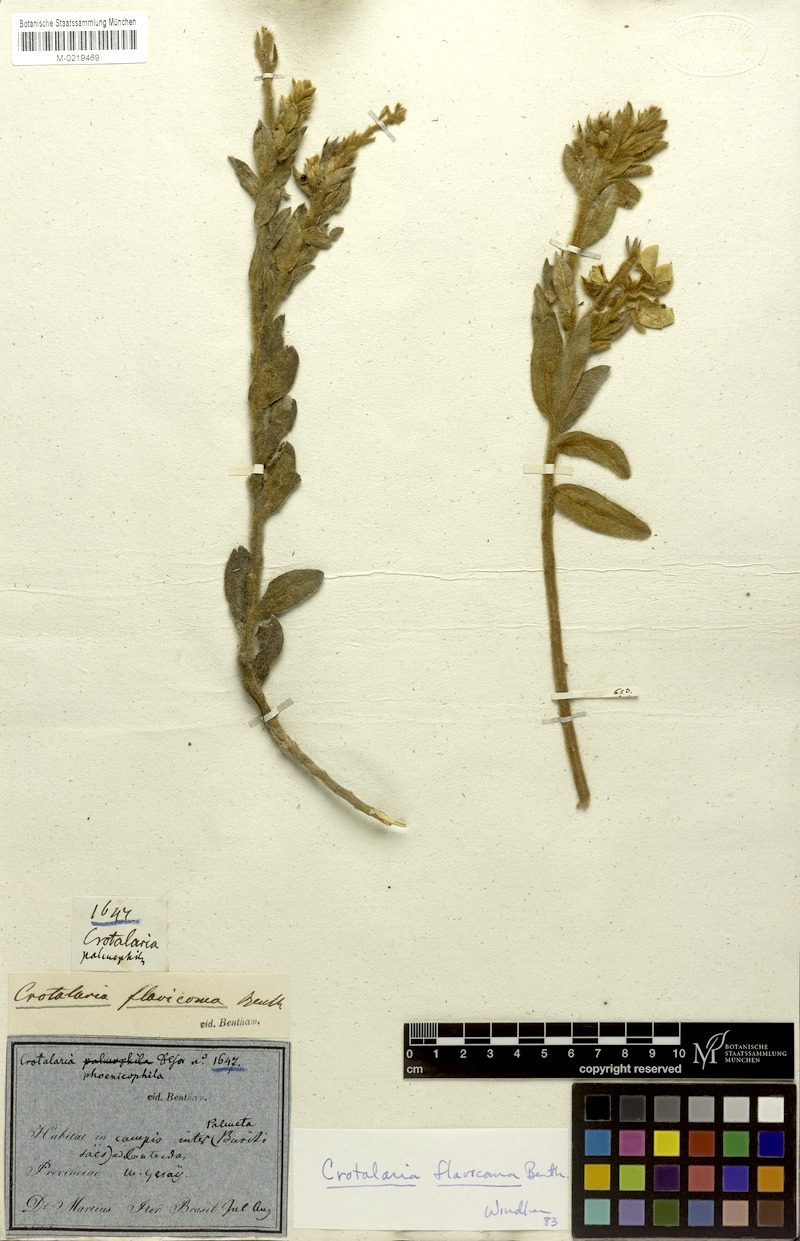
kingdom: Plantae
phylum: Tracheophyta
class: Magnoliopsida
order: Fabales
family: Fabaceae
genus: Crotalaria
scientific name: Crotalaria flavicoma
